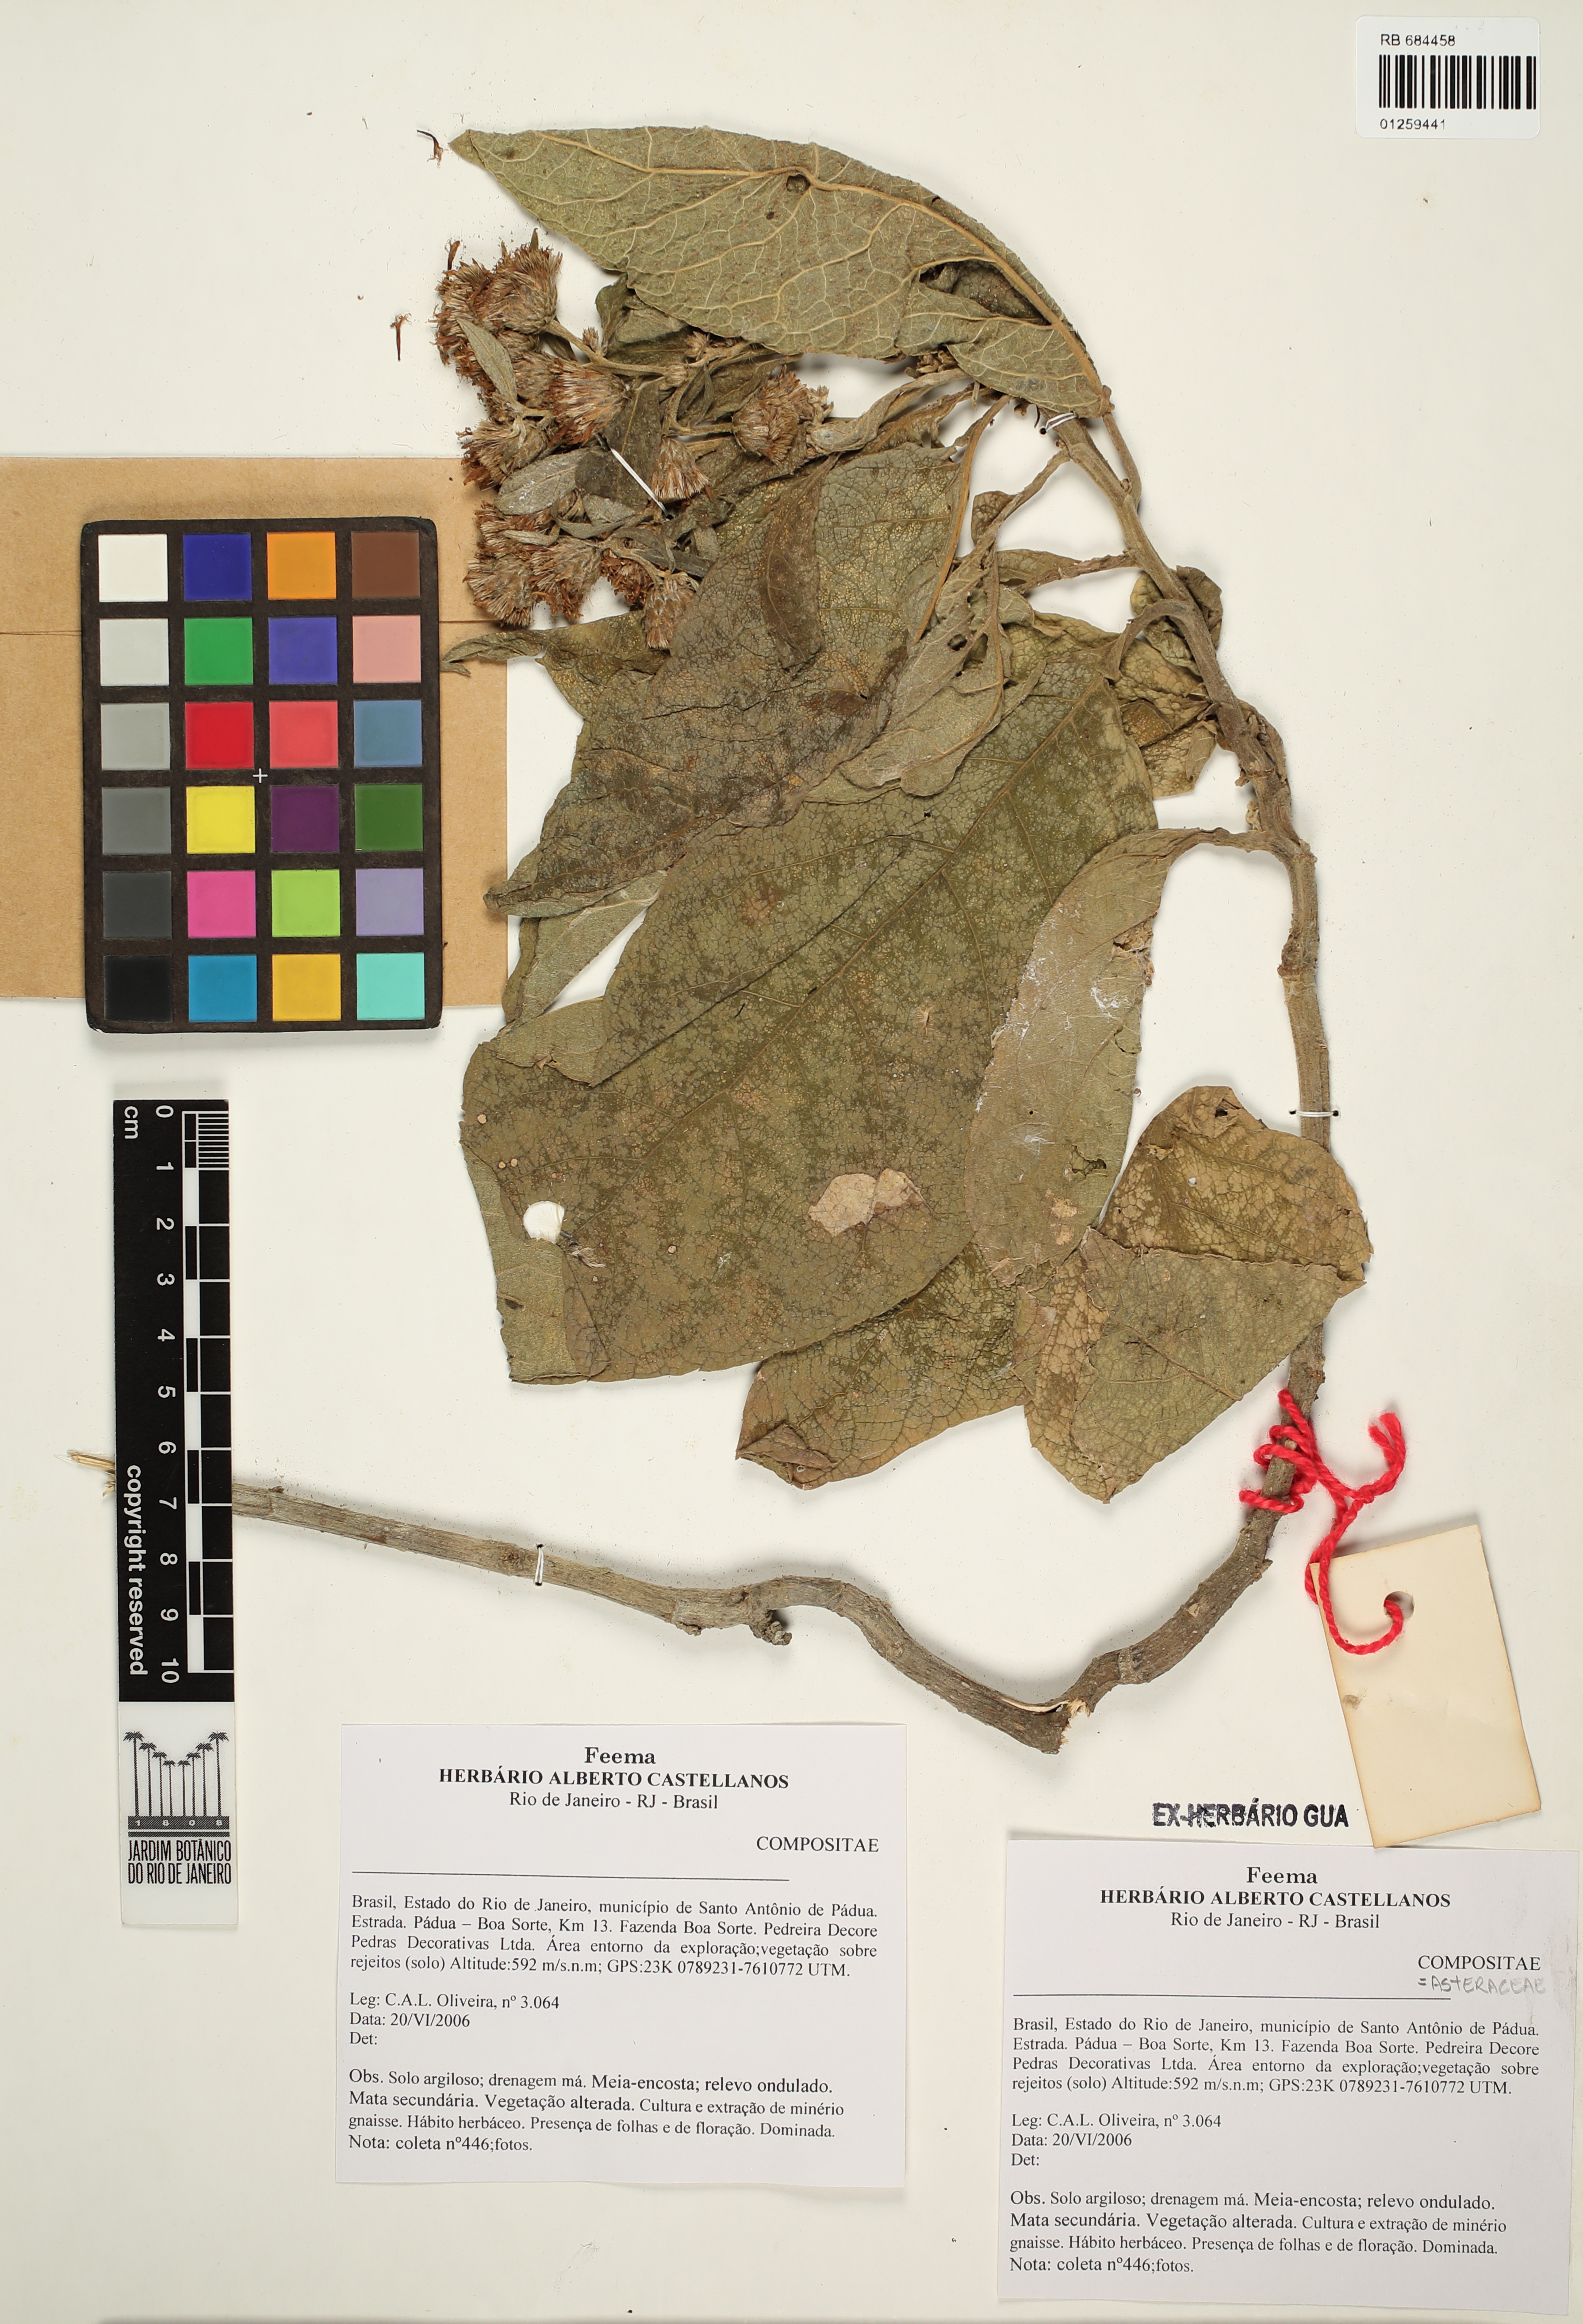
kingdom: Plantae
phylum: Tracheophyta
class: Magnoliopsida
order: Asterales
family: Asteraceae
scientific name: Asteraceae
